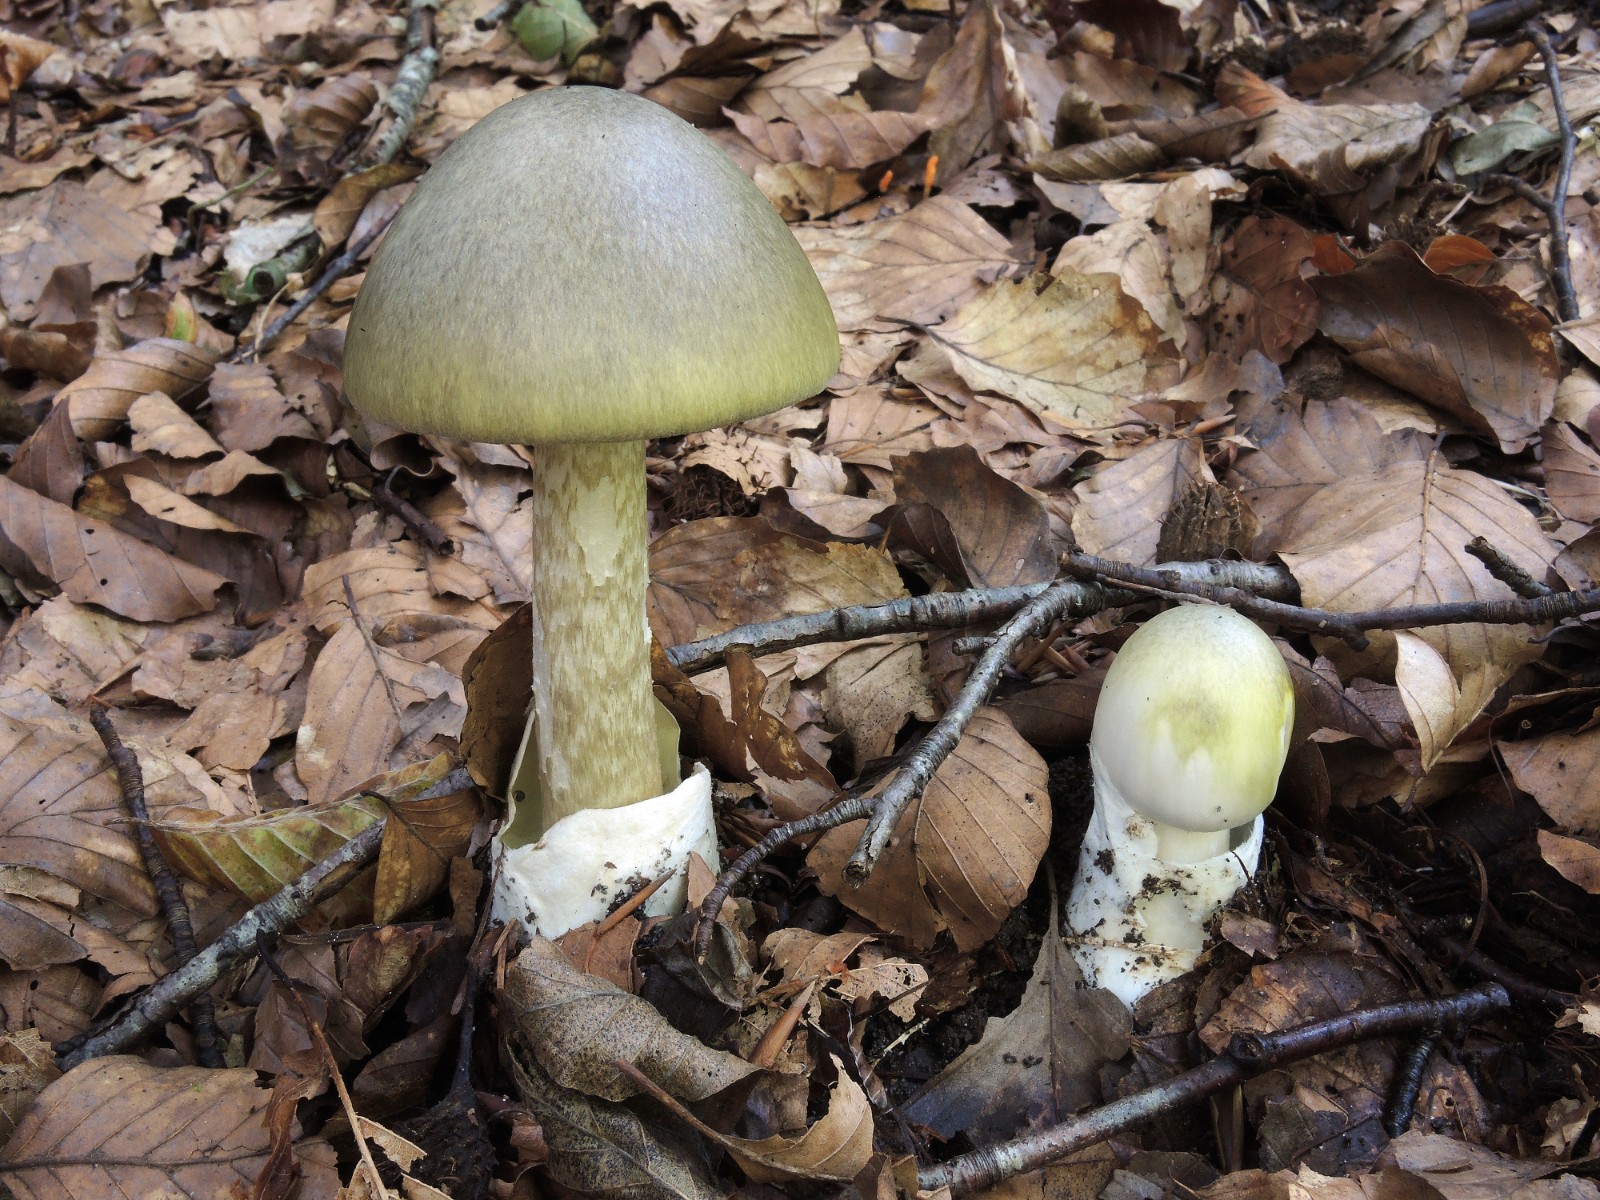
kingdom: Fungi
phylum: Basidiomycota
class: Agaricomycetes
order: Agaricales
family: Amanitaceae
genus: Amanita
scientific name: Amanita phalloides
